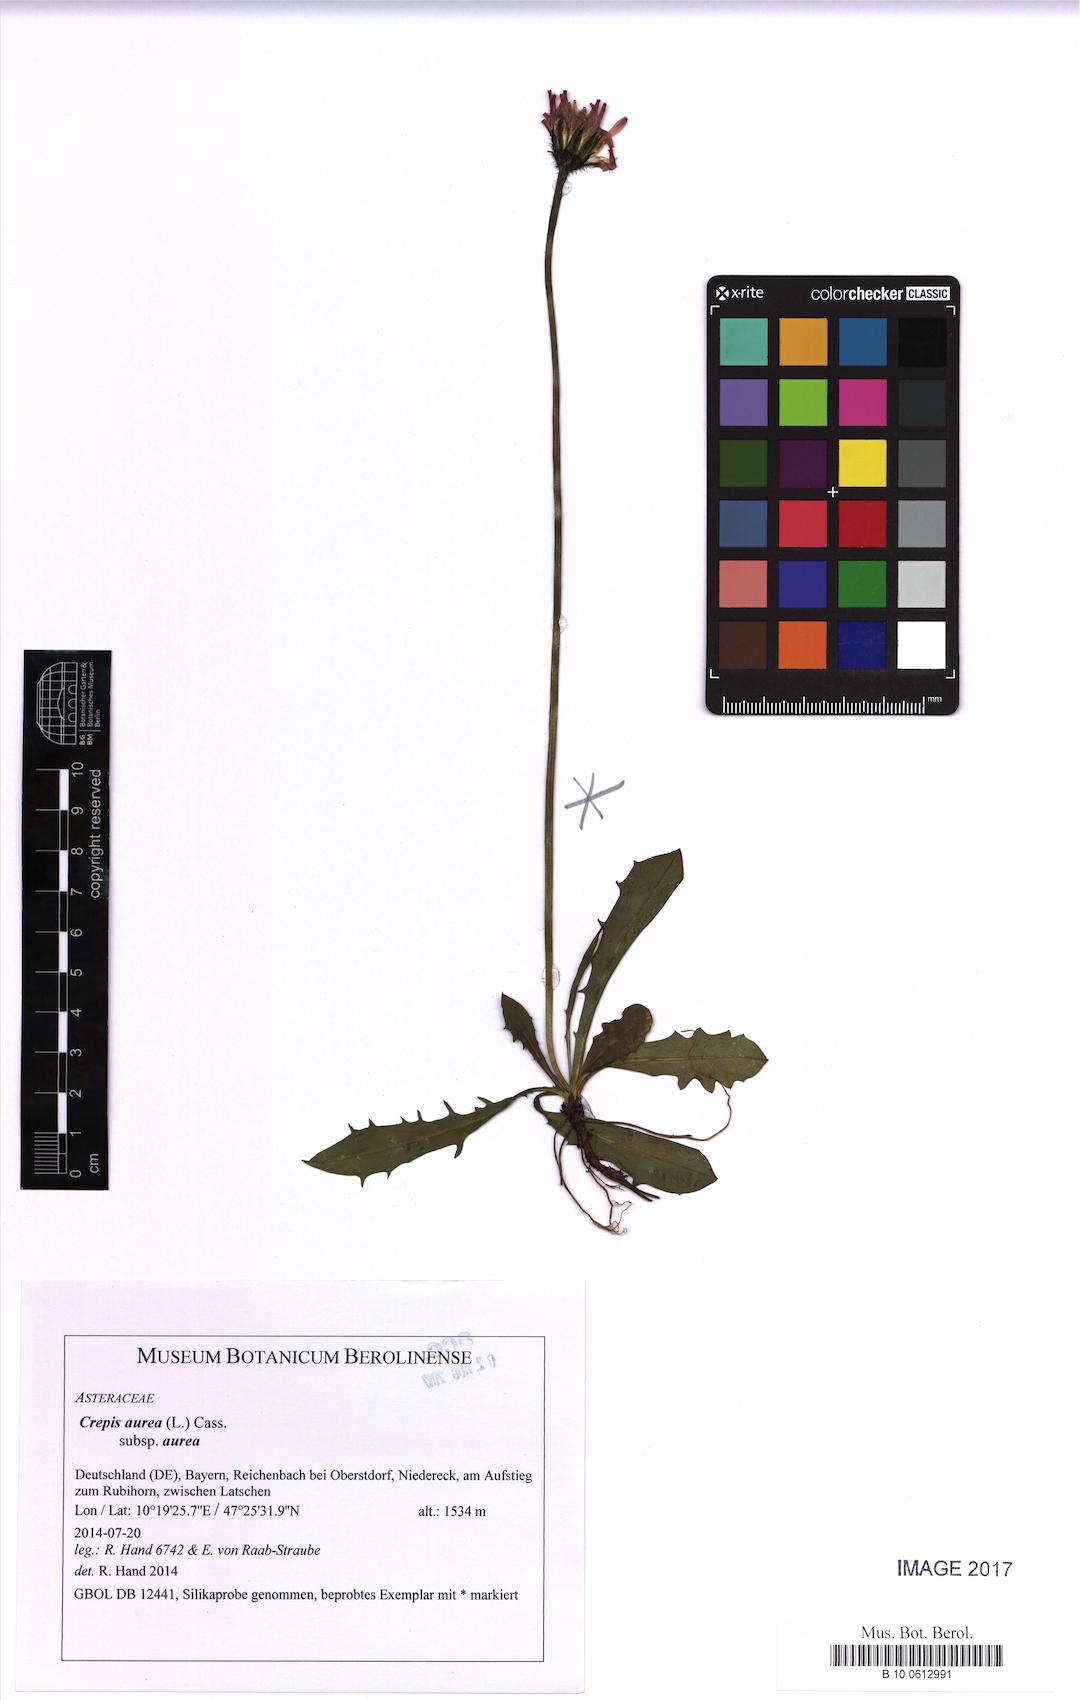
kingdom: Plantae
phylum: Tracheophyta
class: Magnoliopsida
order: Asterales
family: Asteraceae
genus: Crepis
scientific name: Crepis aurea
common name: Golden hawk's-beard
